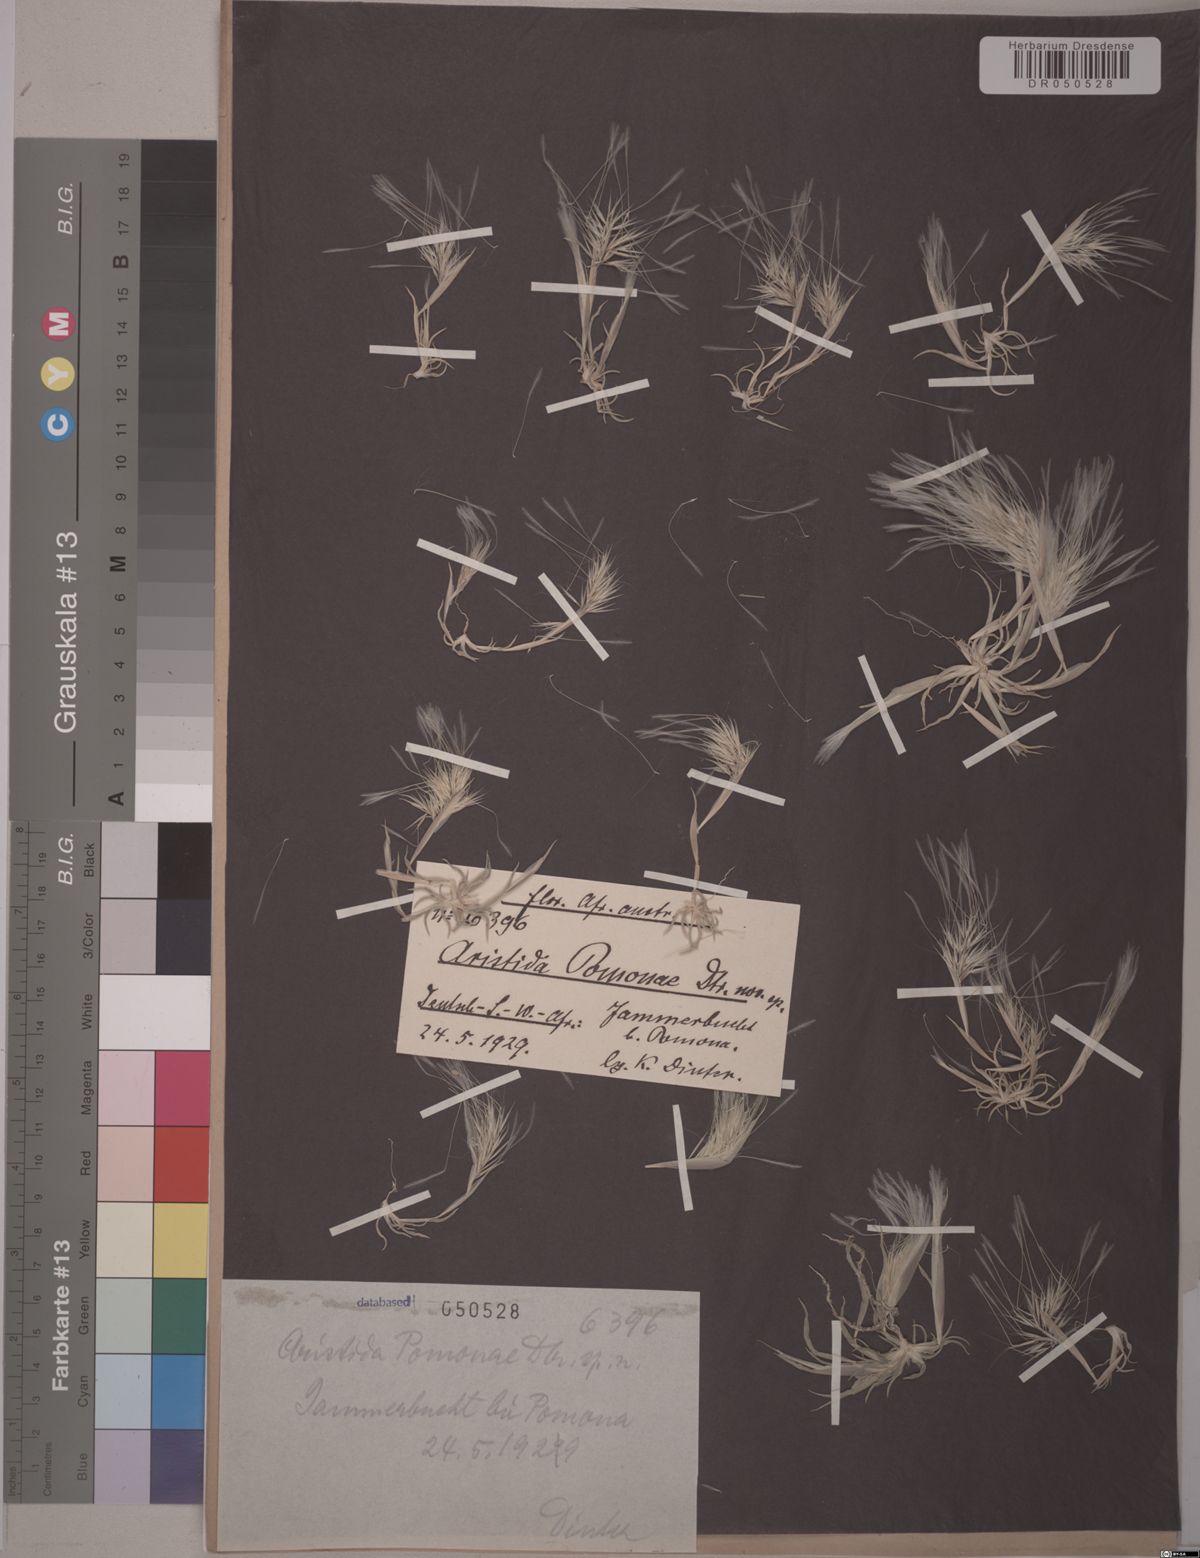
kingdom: Plantae
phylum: Tracheophyta
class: Liliopsida
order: Poales
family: Poaceae
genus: Aristida
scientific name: Aristida
